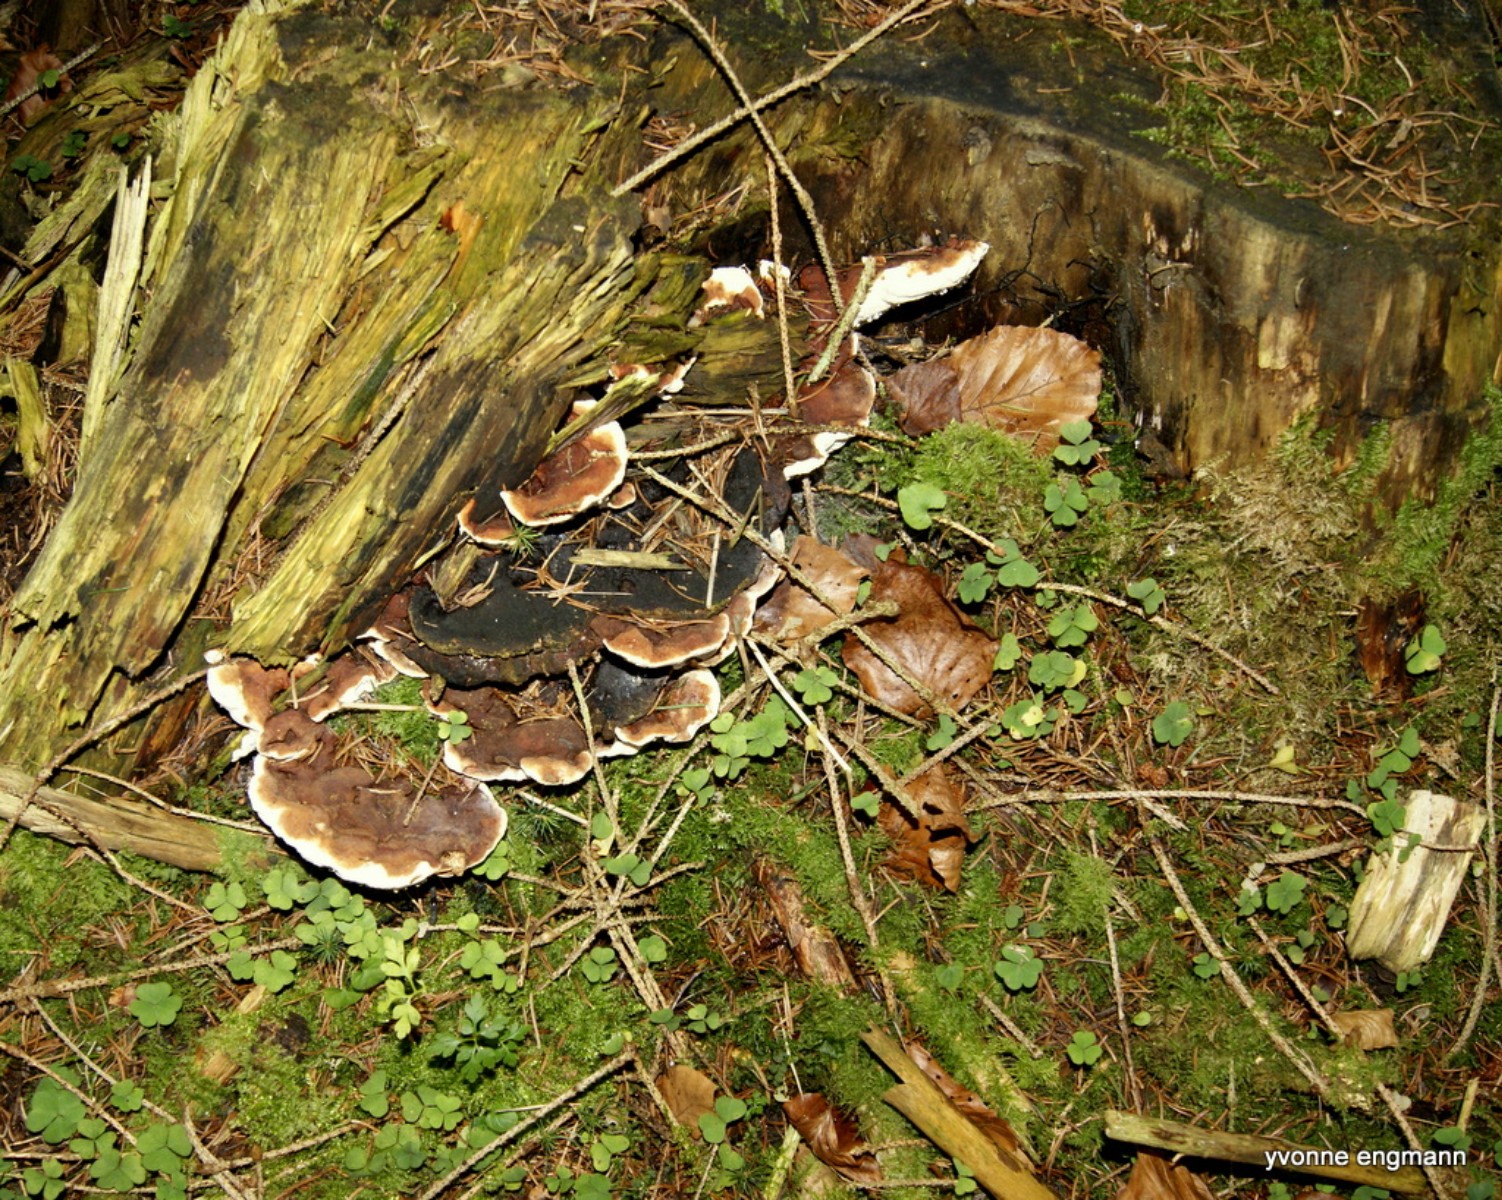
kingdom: Fungi
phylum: Basidiomycota
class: Agaricomycetes
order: Russulales
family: Bondarzewiaceae
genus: Heterobasidion
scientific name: Heterobasidion annosum
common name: almindelig rodfordærver
